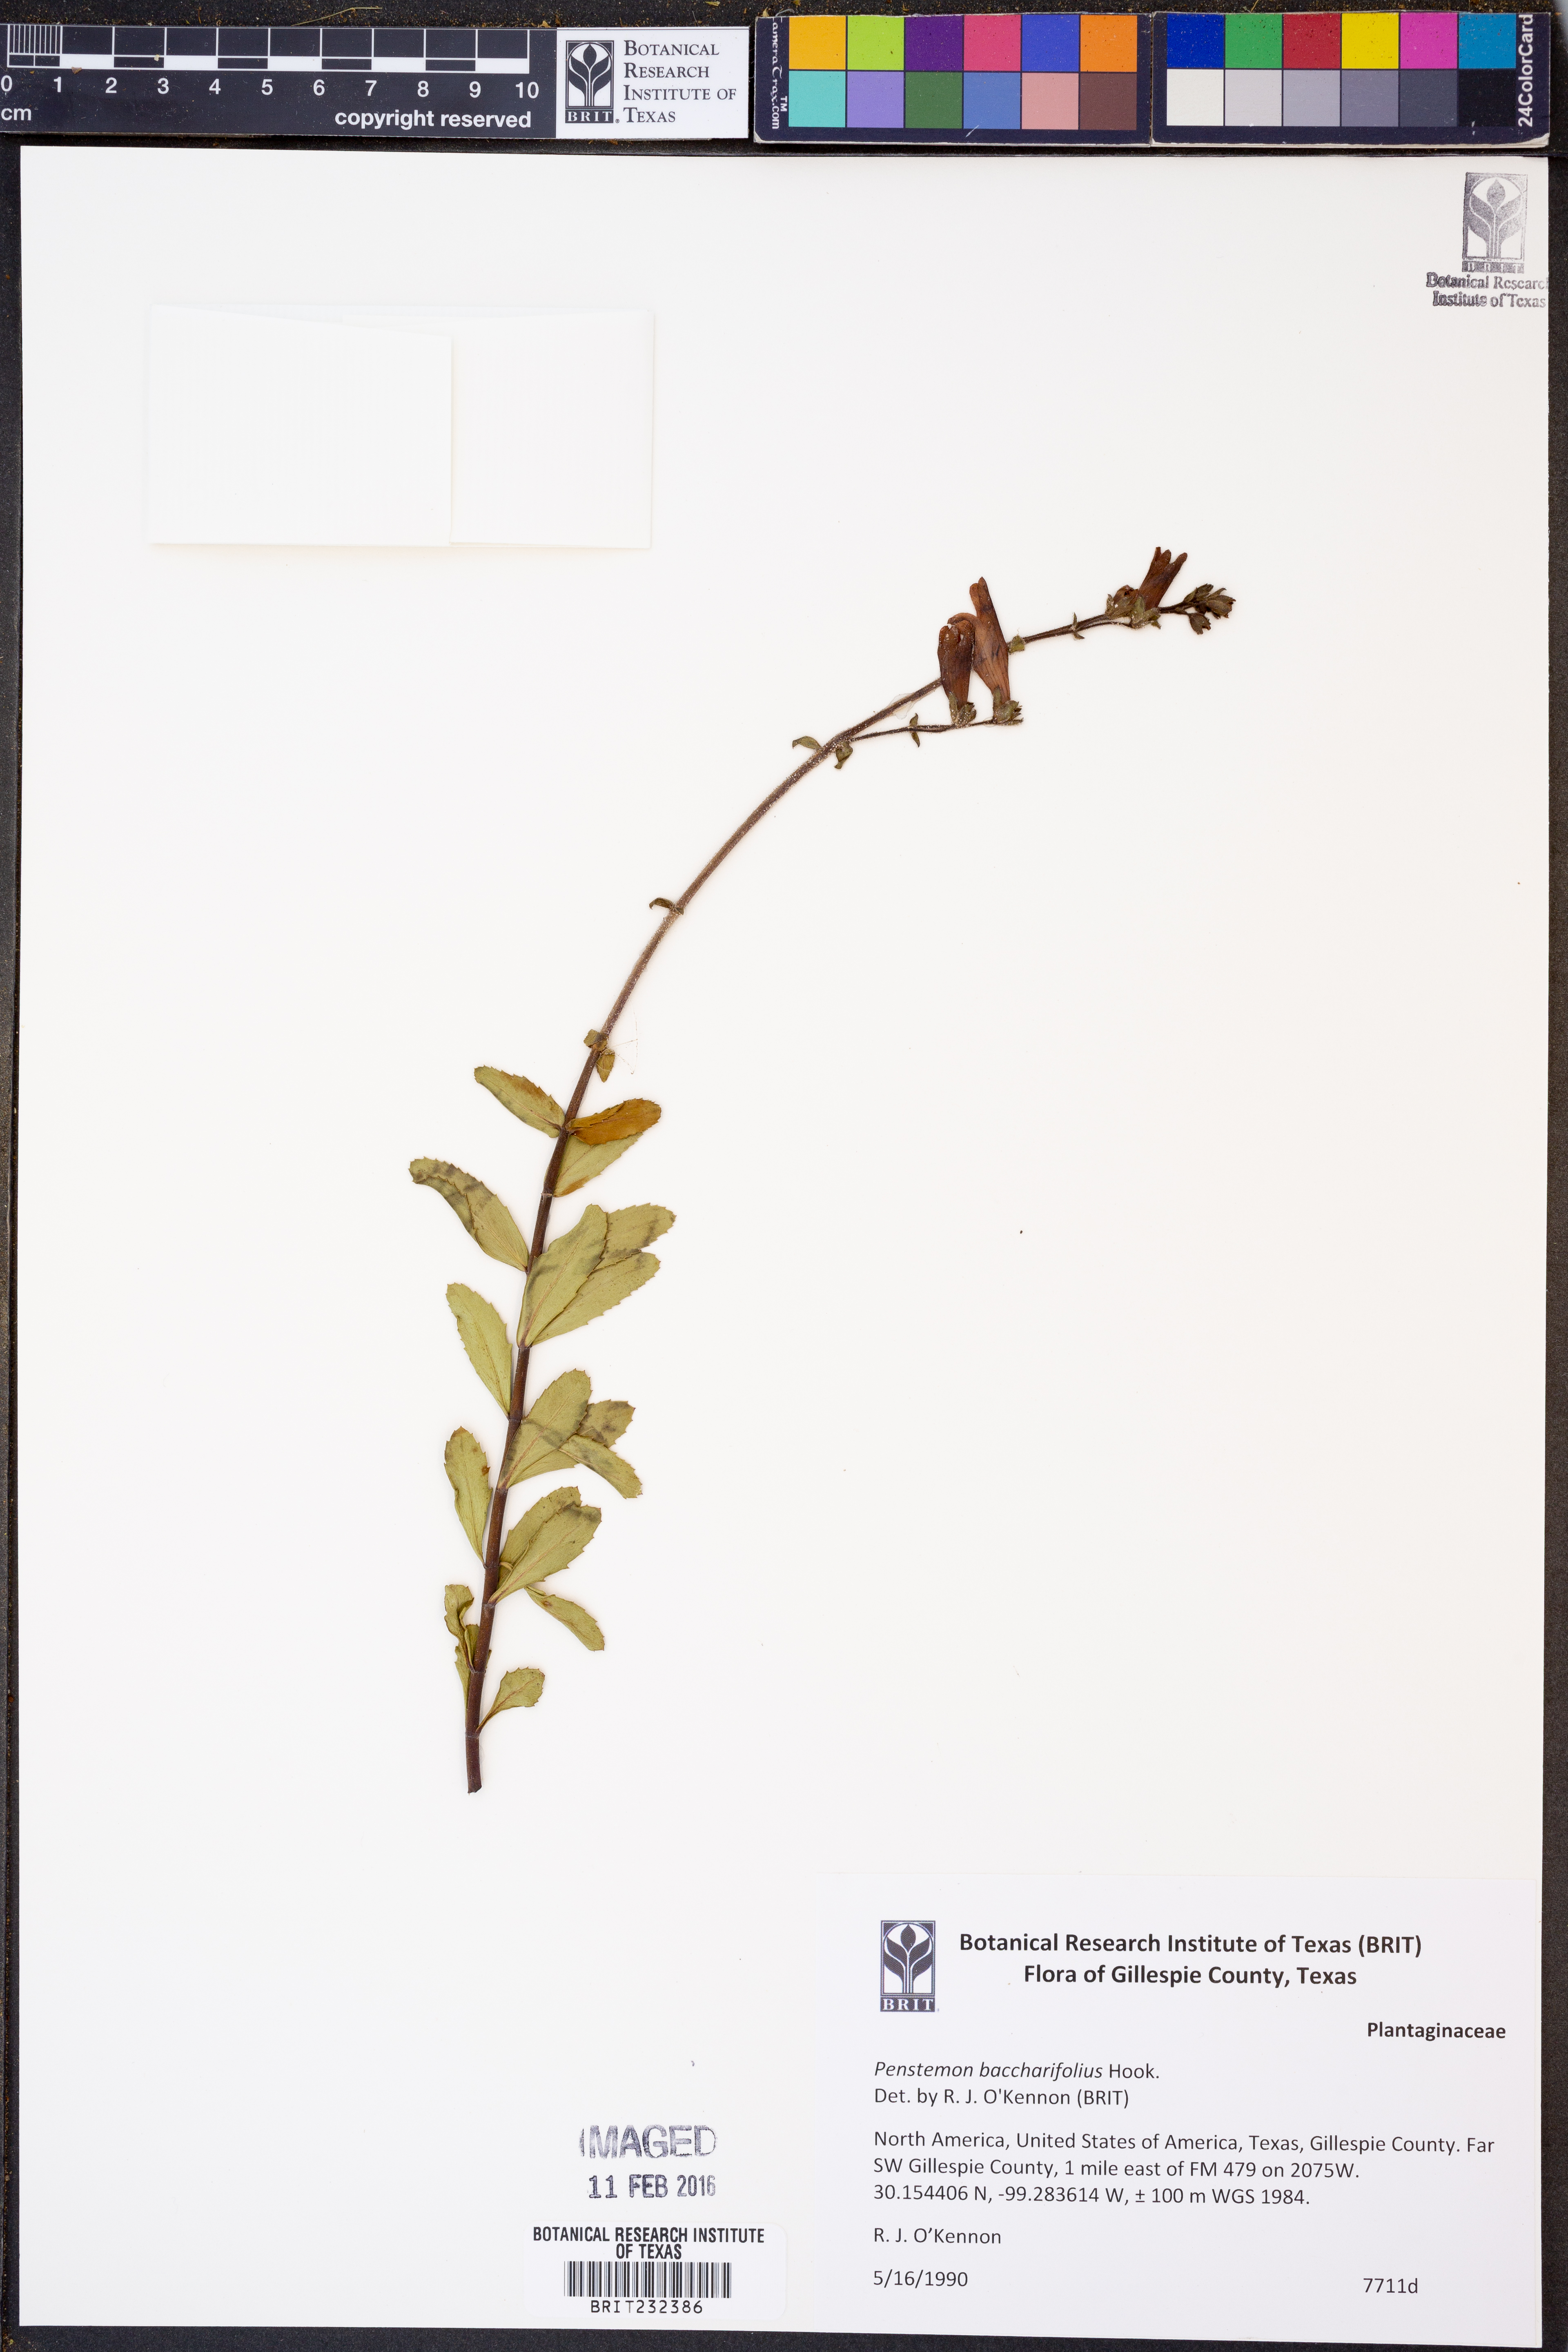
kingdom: Plantae
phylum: Tracheophyta
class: Magnoliopsida
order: Lamiales
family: Plantaginaceae
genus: Penstemon
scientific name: Penstemon baccharifolius
